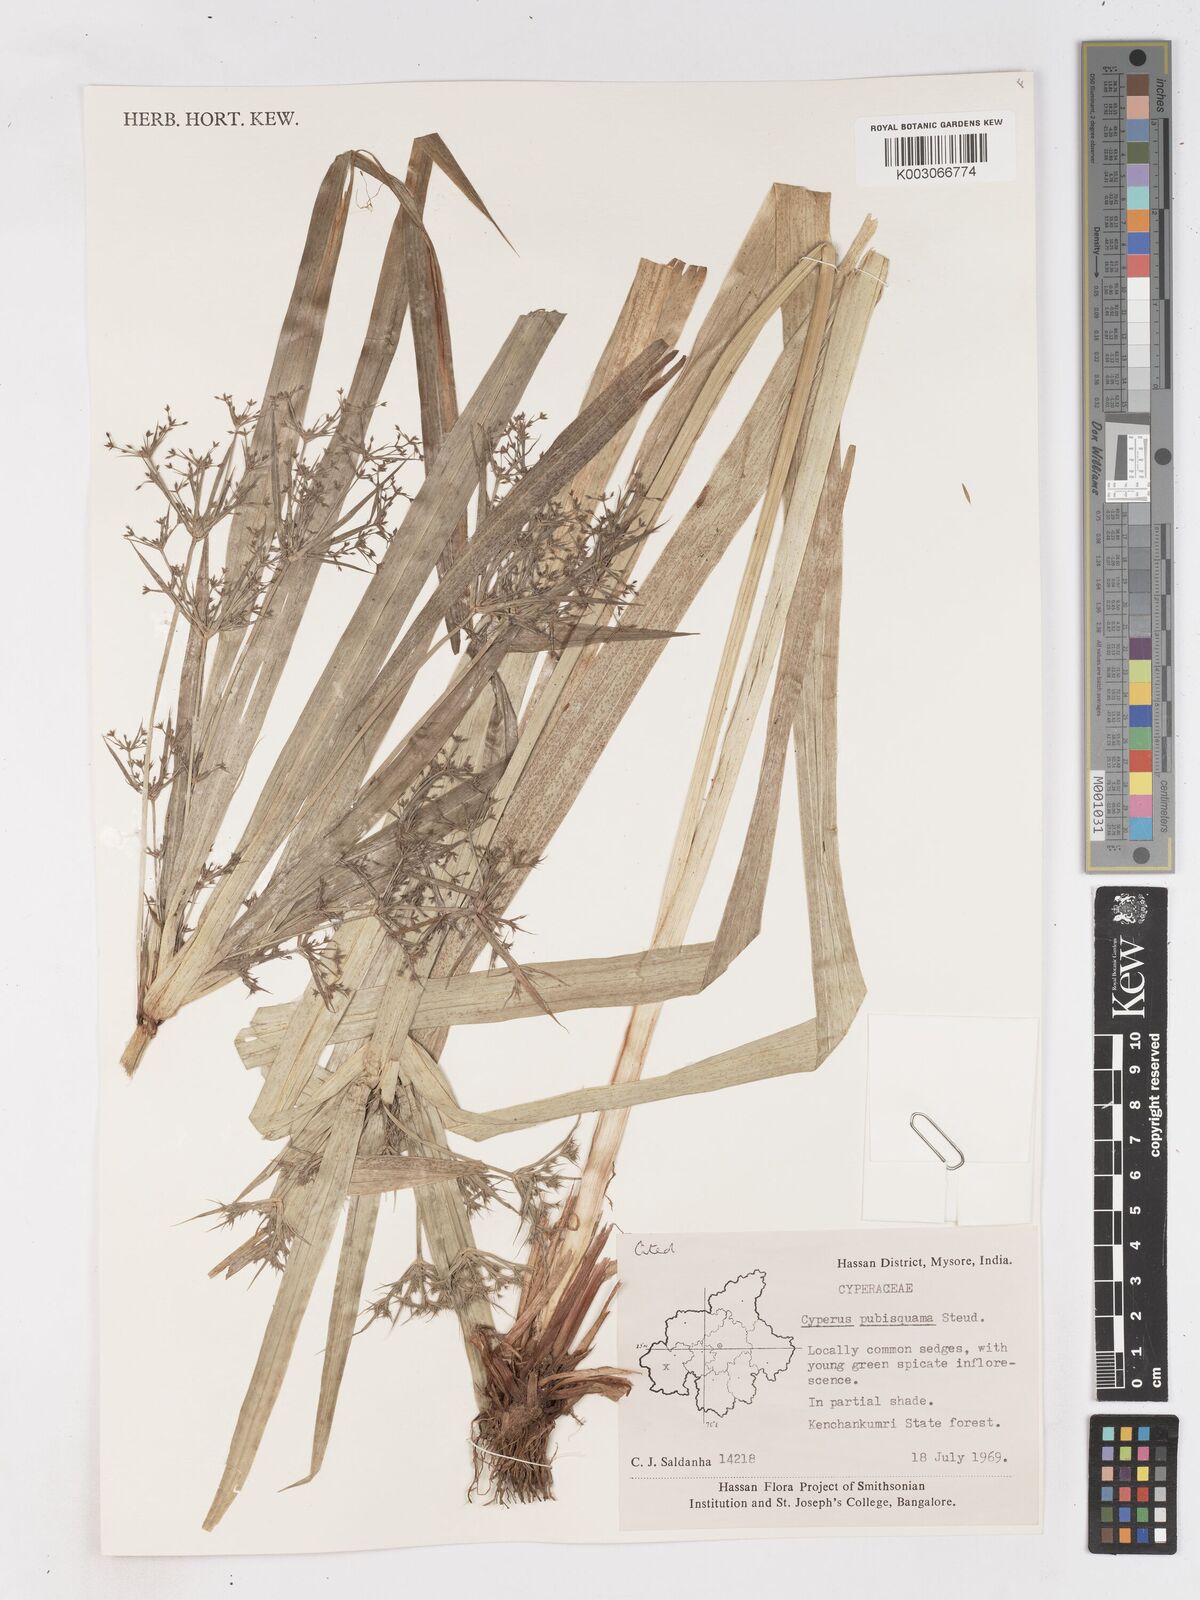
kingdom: Plantae
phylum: Tracheophyta
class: Liliopsida
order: Poales
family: Cyperaceae
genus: Cyperus
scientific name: Cyperus diffusus
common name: Dwarf umbrella grass
